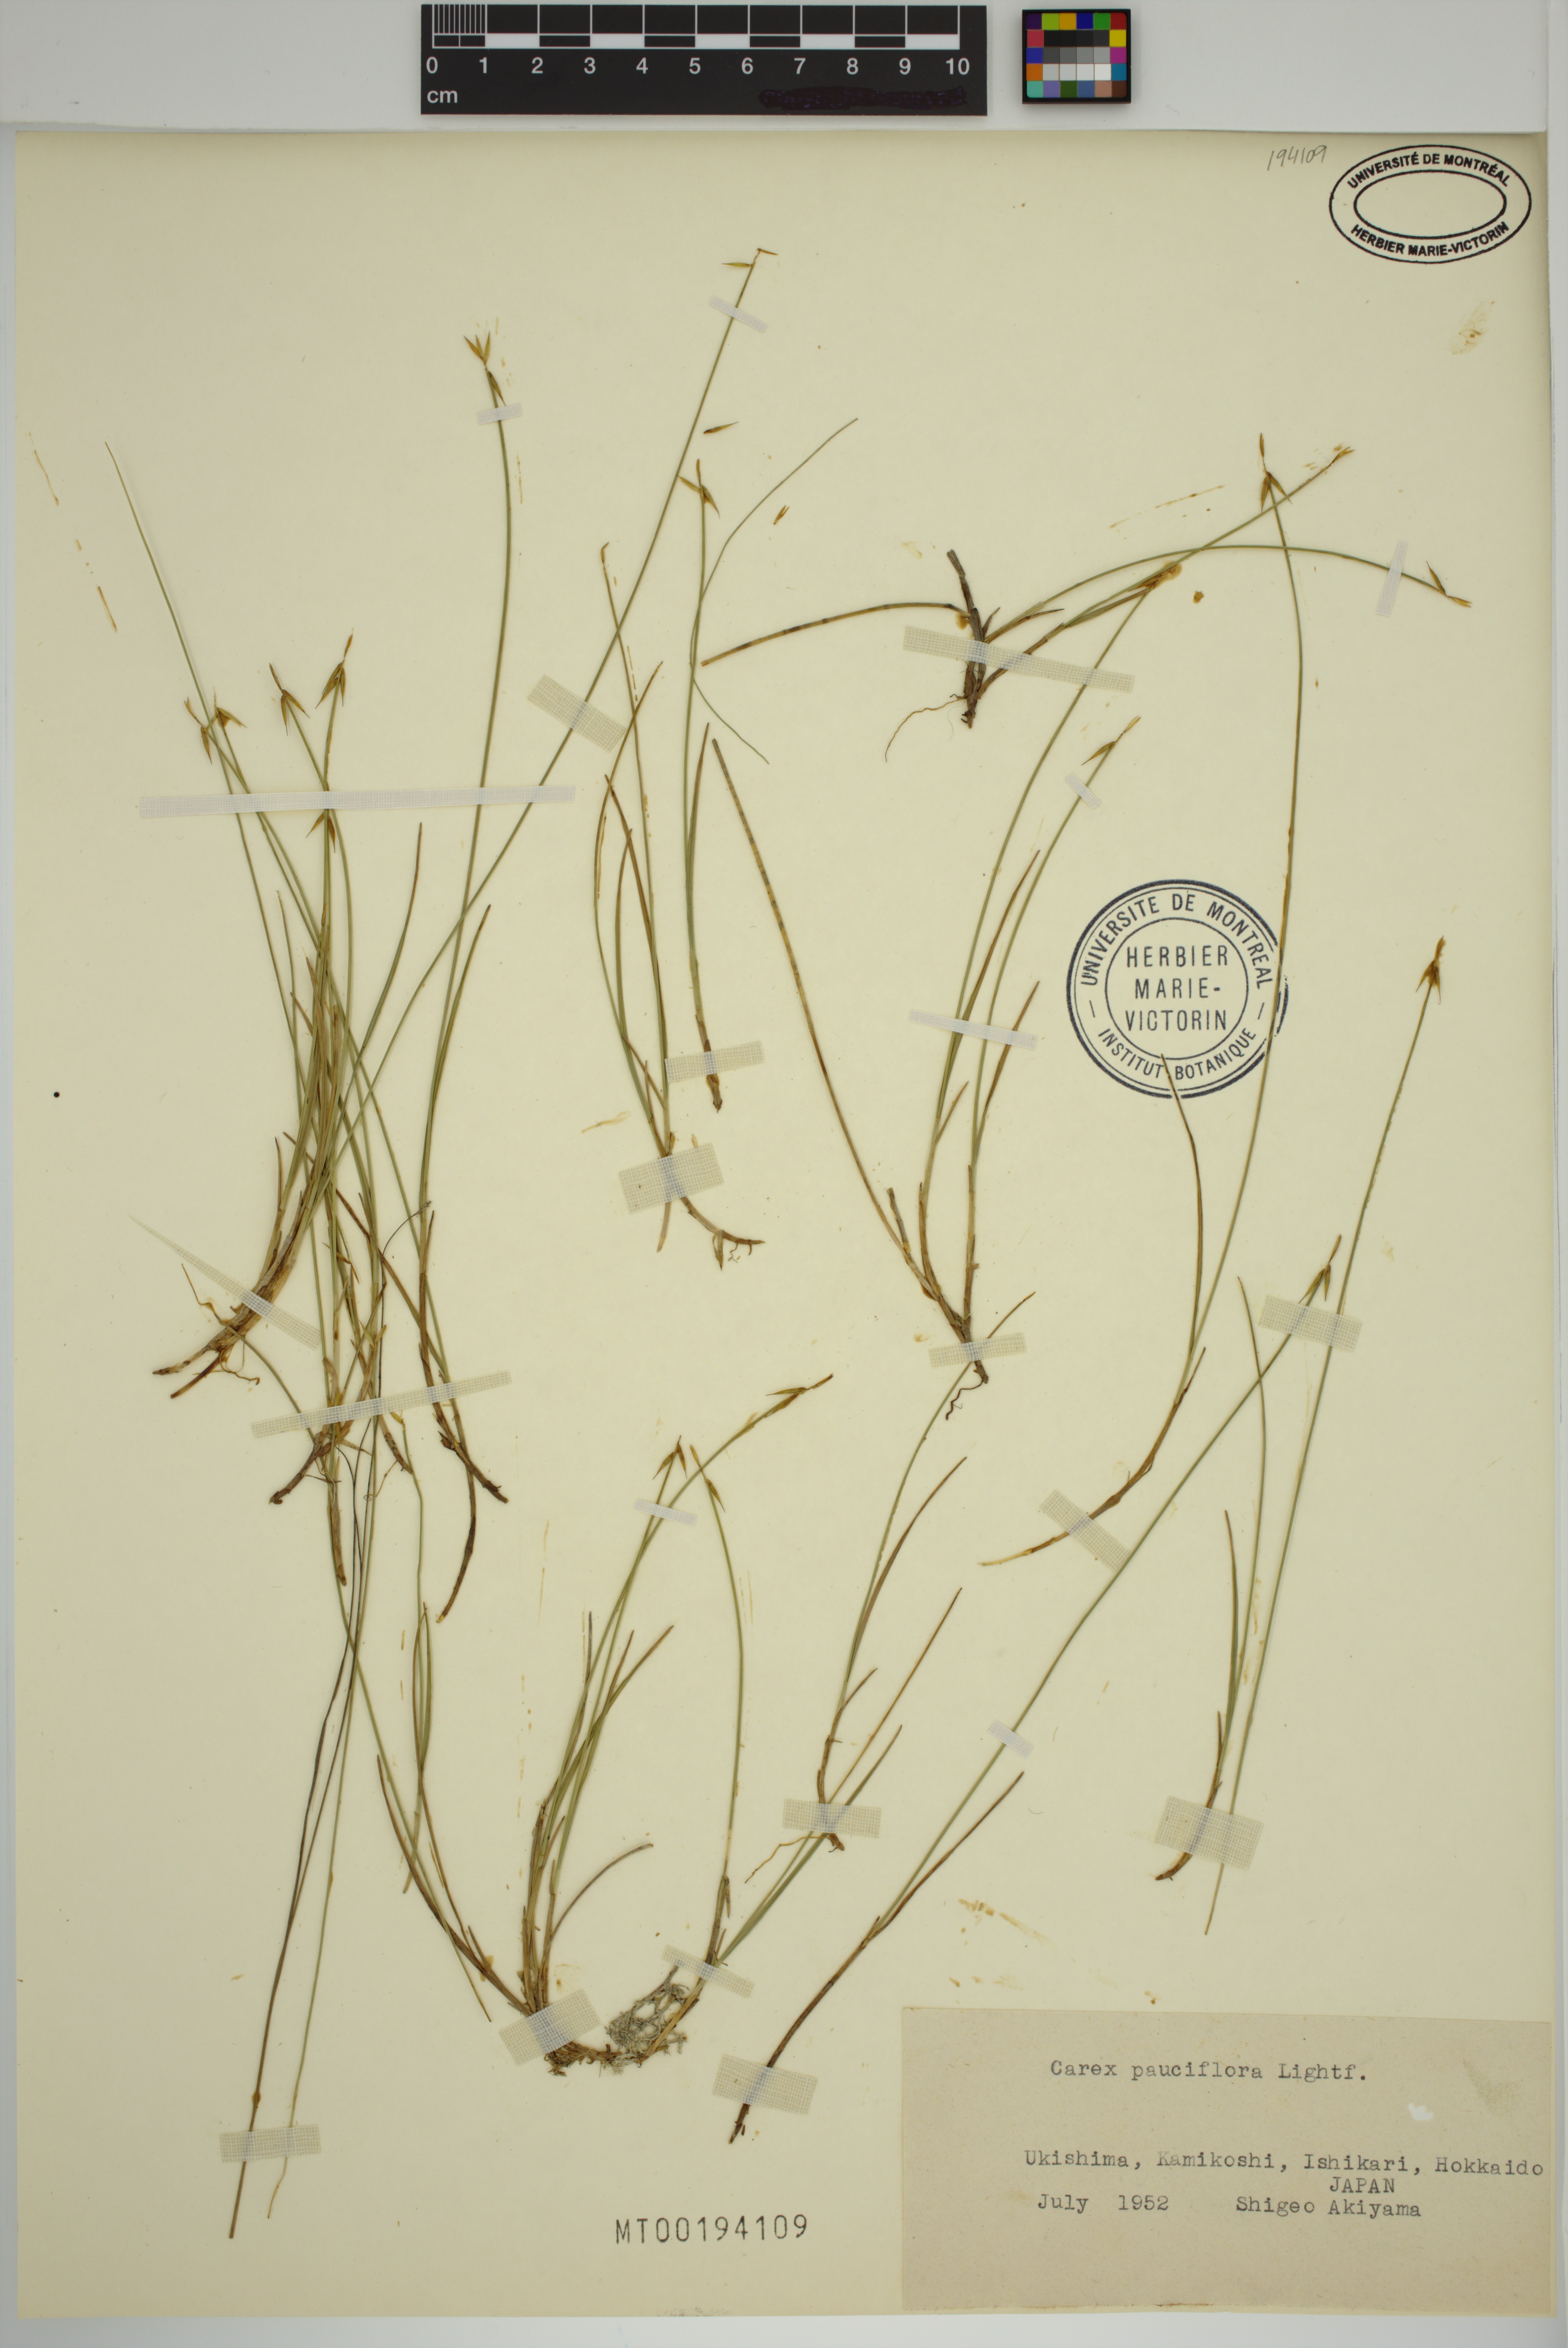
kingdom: Plantae
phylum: Tracheophyta
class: Liliopsida
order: Poales
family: Cyperaceae
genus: Carex
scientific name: Carex pauciflora
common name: Few-flowered sedge
